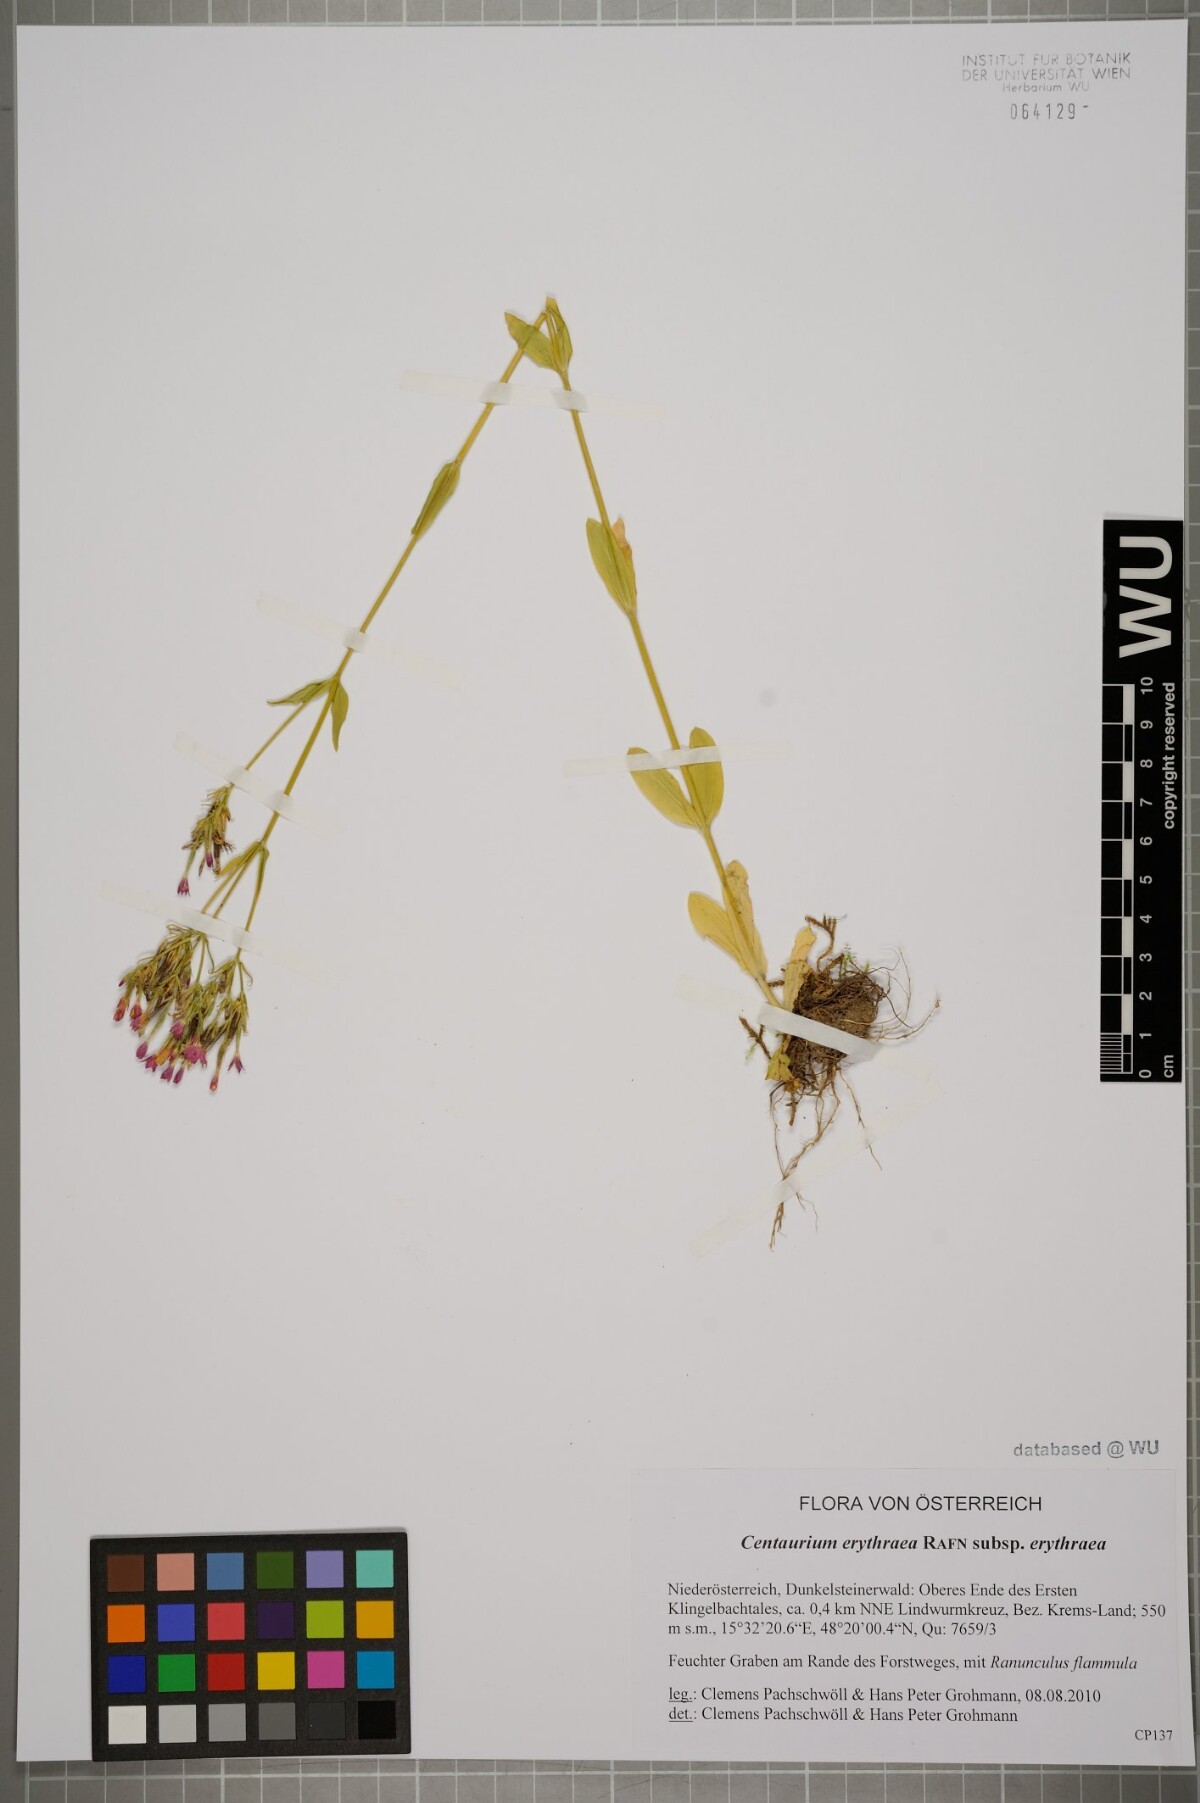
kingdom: Plantae
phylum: Tracheophyta
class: Magnoliopsida
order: Gentianales
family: Gentianaceae
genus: Centaurium
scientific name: Centaurium erythraea
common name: Common centaury
